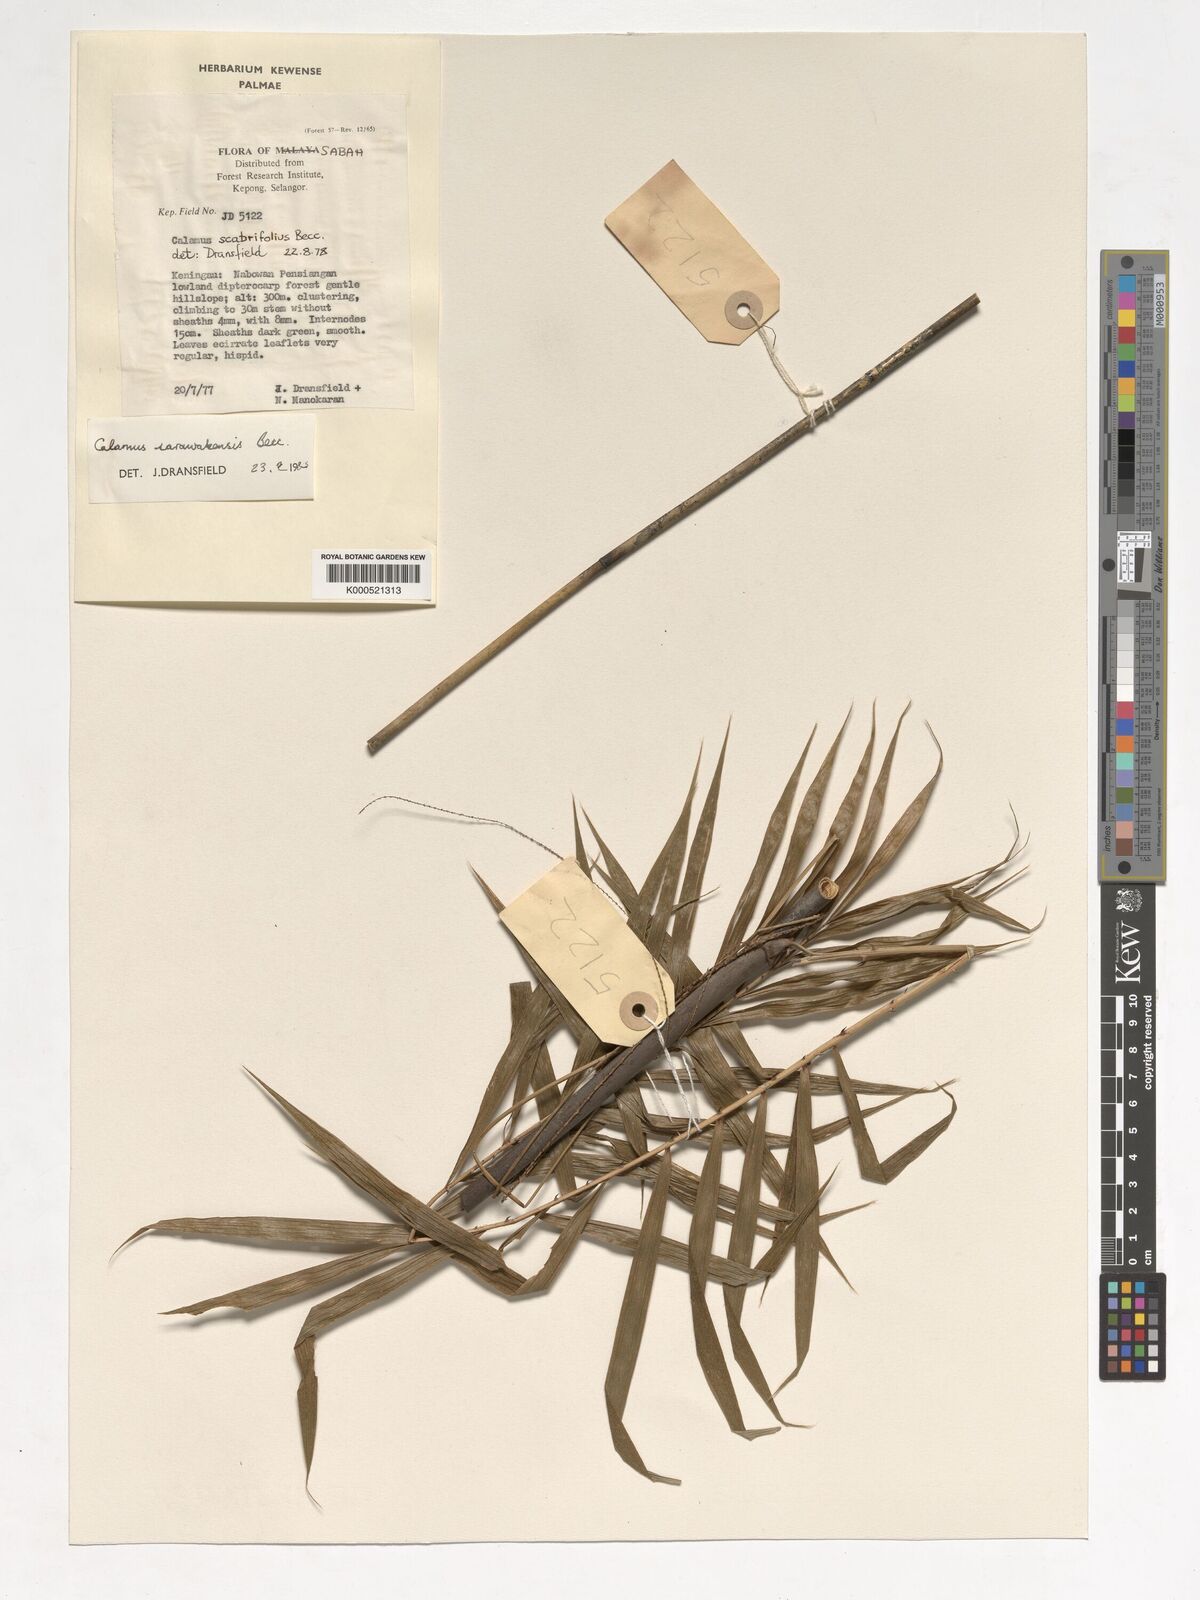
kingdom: Plantae
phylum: Tracheophyta
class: Liliopsida
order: Arecales
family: Arecaceae
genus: Calamus
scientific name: Calamus sarawakensis
